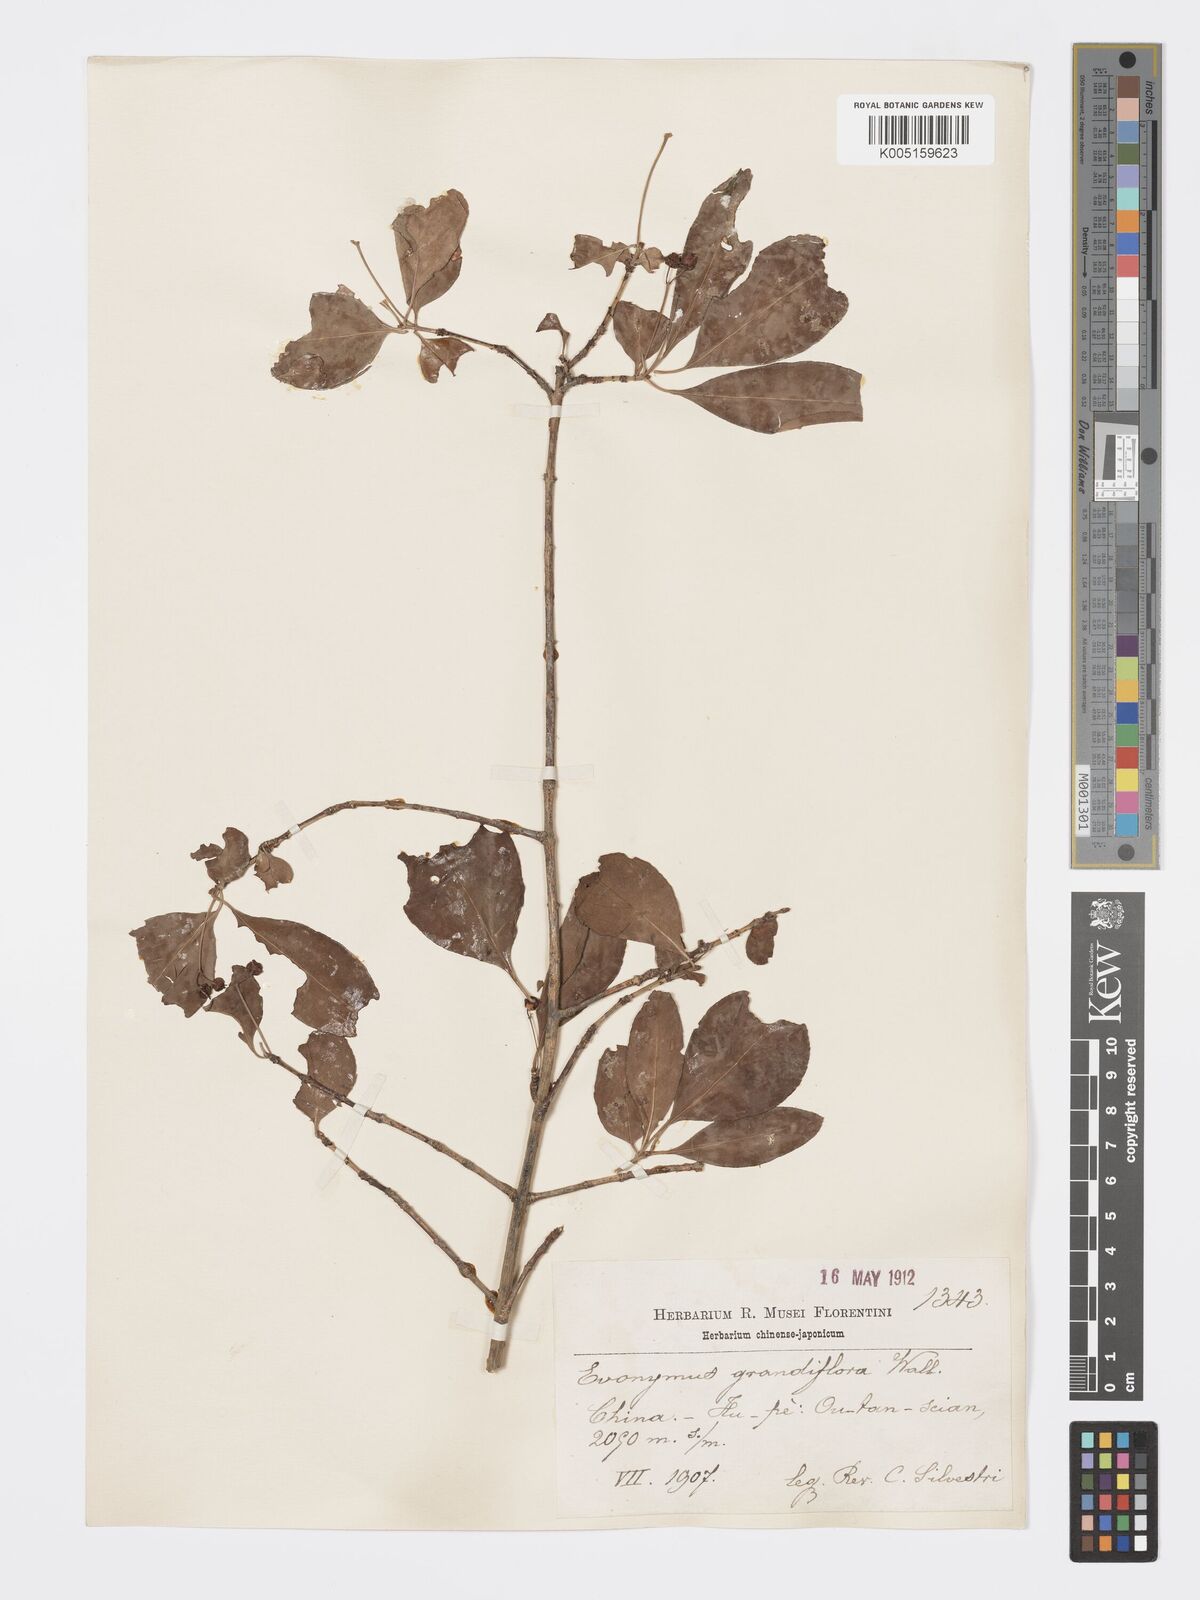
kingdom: Plantae
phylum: Tracheophyta
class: Magnoliopsida
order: Celastrales
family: Celastraceae
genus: Euonymus
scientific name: Euonymus grandiflorus
